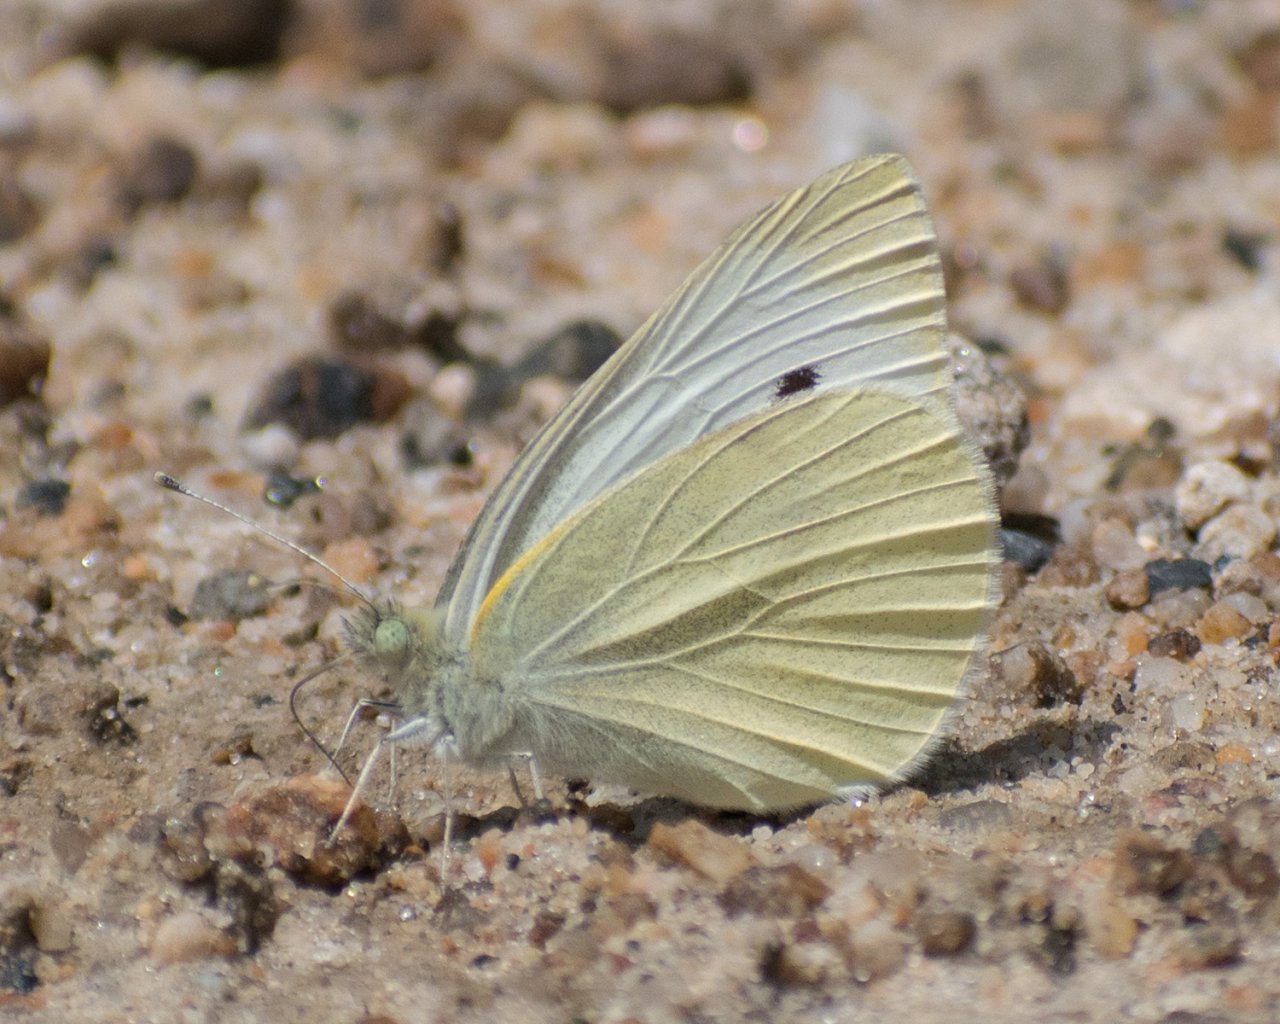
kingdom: Animalia
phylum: Arthropoda
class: Insecta
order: Lepidoptera
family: Pieridae
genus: Pieris
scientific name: Pieris rapae
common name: Cabbage White
